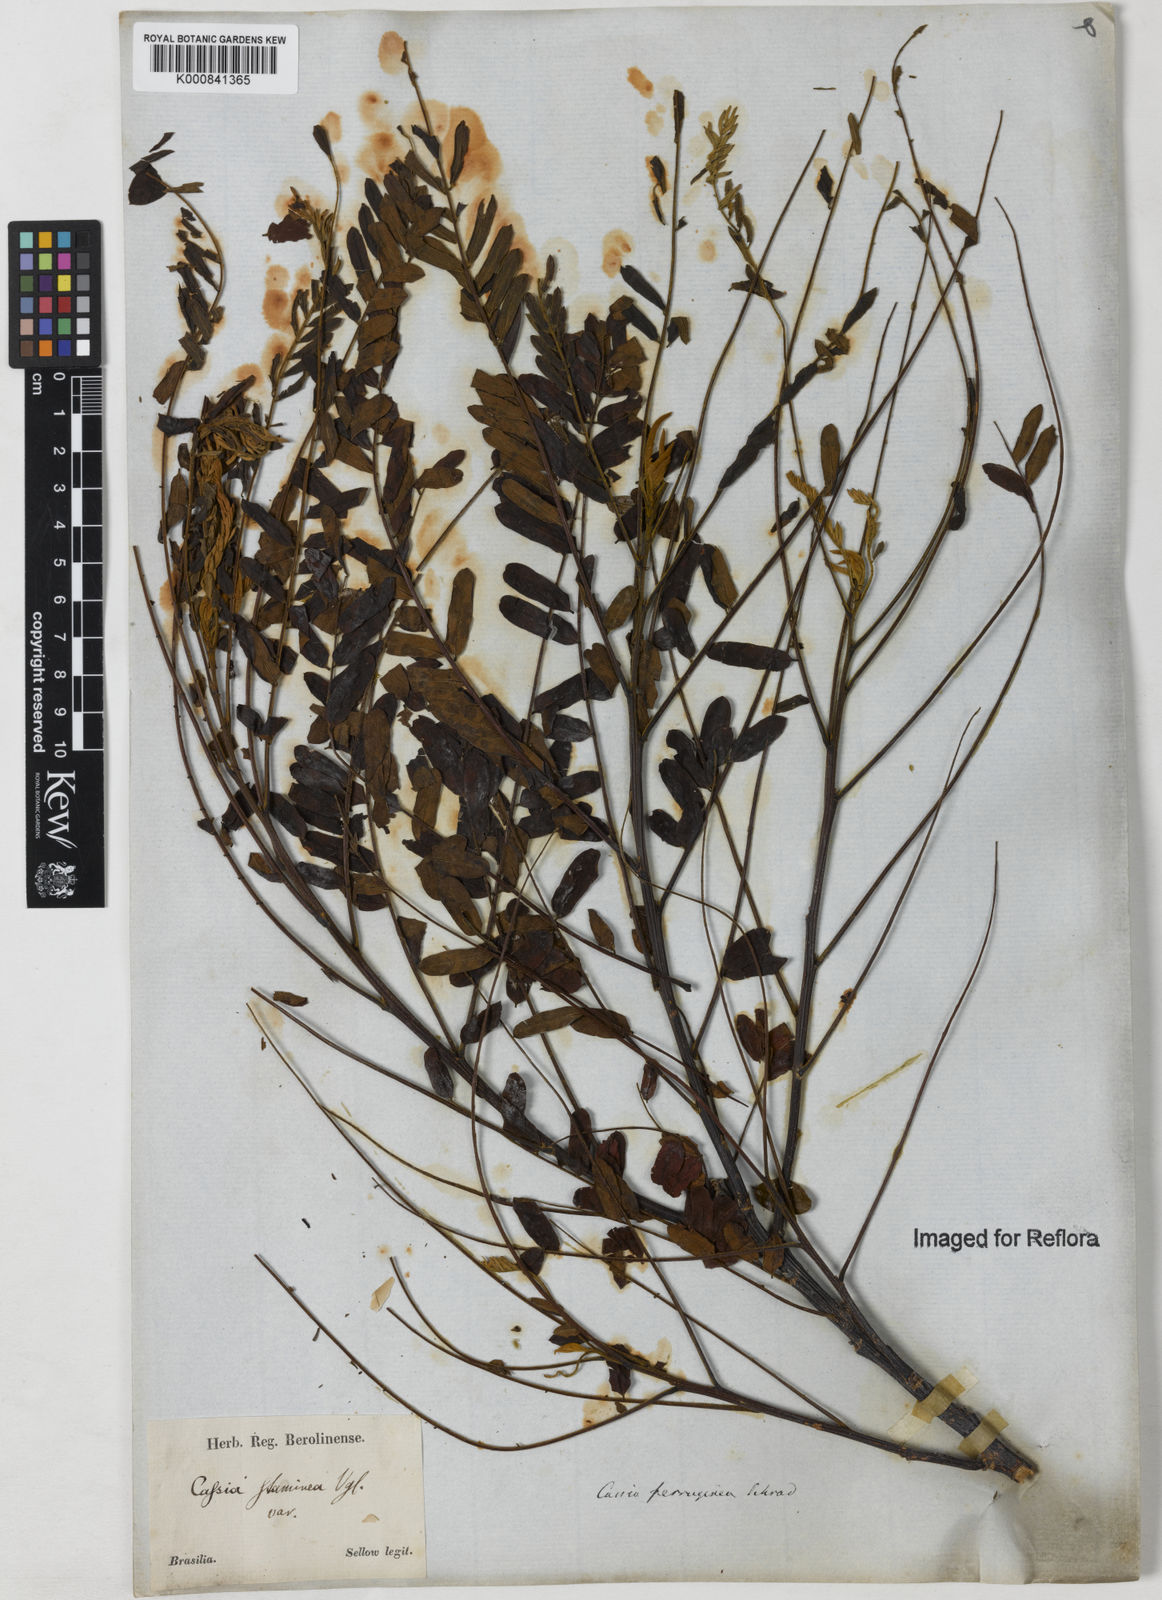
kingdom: Plantae
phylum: Tracheophyta
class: Magnoliopsida
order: Fabales
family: Fabaceae
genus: Cassia
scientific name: Cassia ferruginea
